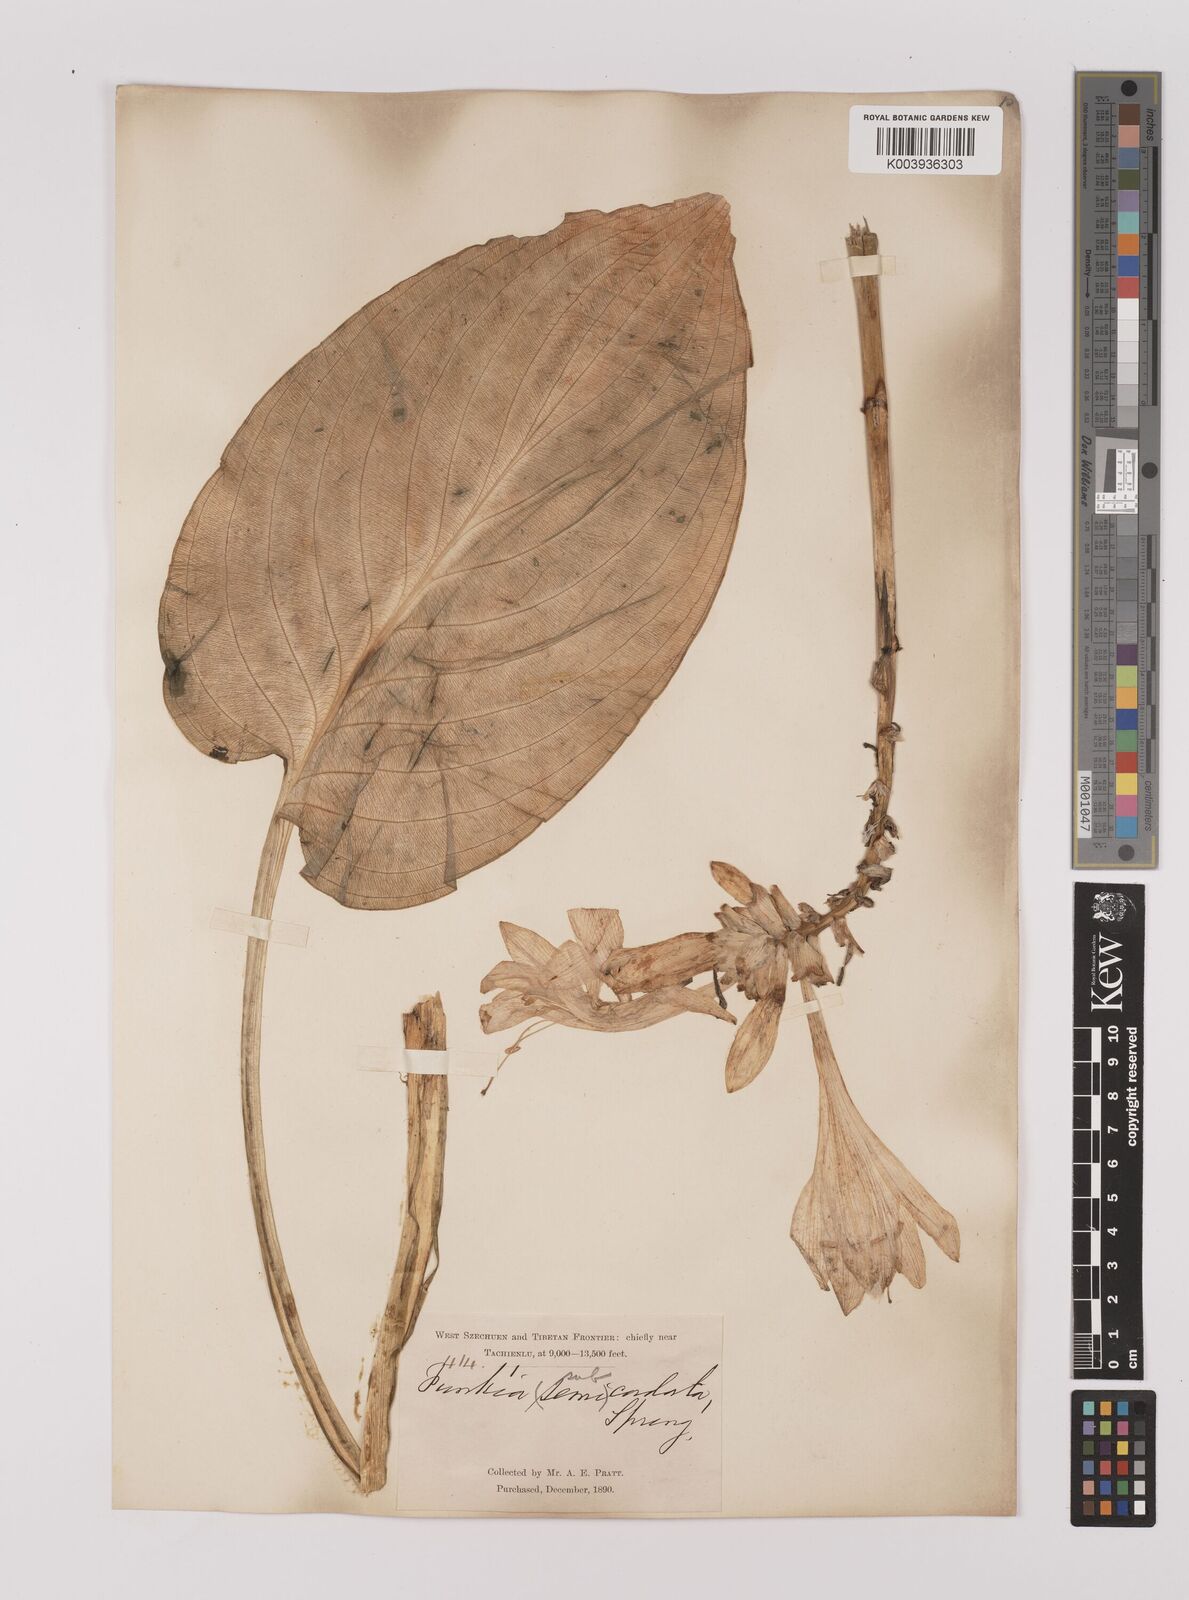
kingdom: Plantae
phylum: Tracheophyta
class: Liliopsida
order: Asparagales
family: Asparagaceae
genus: Hosta
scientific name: Hosta plantaginea
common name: August-lily
